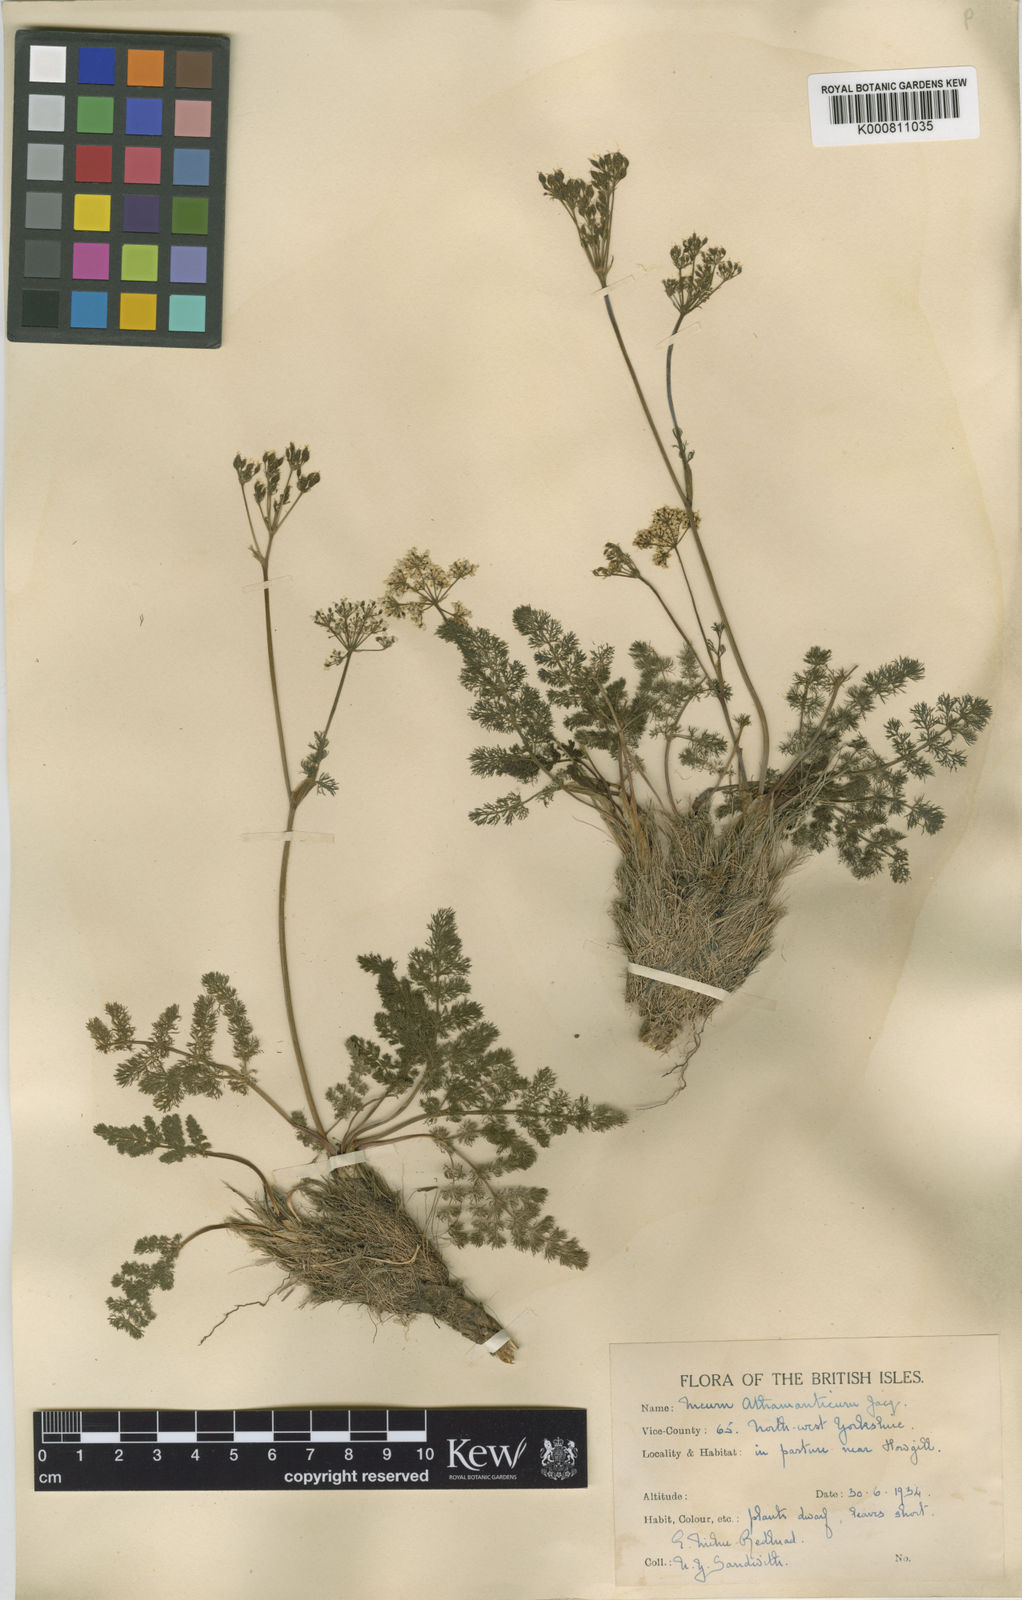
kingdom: Plantae
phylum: Tracheophyta
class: Magnoliopsida
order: Apiales
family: Apiaceae
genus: Meum
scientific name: Meum athamanticum
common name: Spignel
